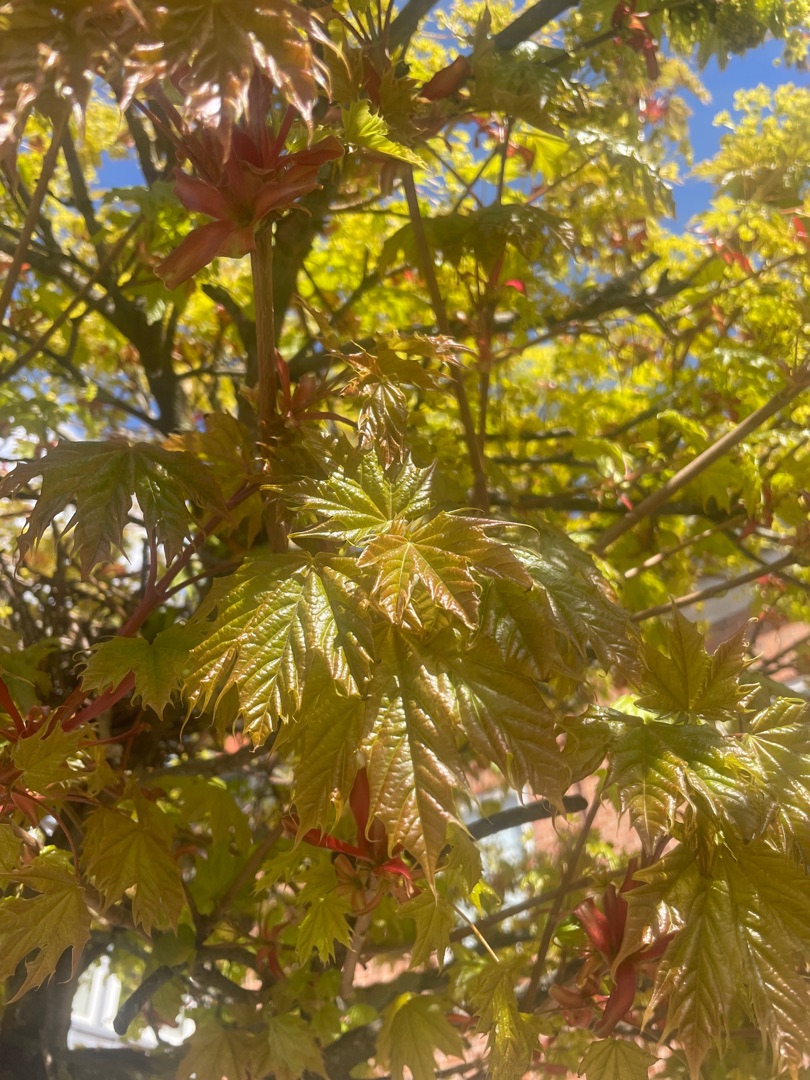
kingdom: Plantae
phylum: Tracheophyta
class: Magnoliopsida
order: Sapindales
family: Sapindaceae
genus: Acer
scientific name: Acer platanoides
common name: Spids-løn
